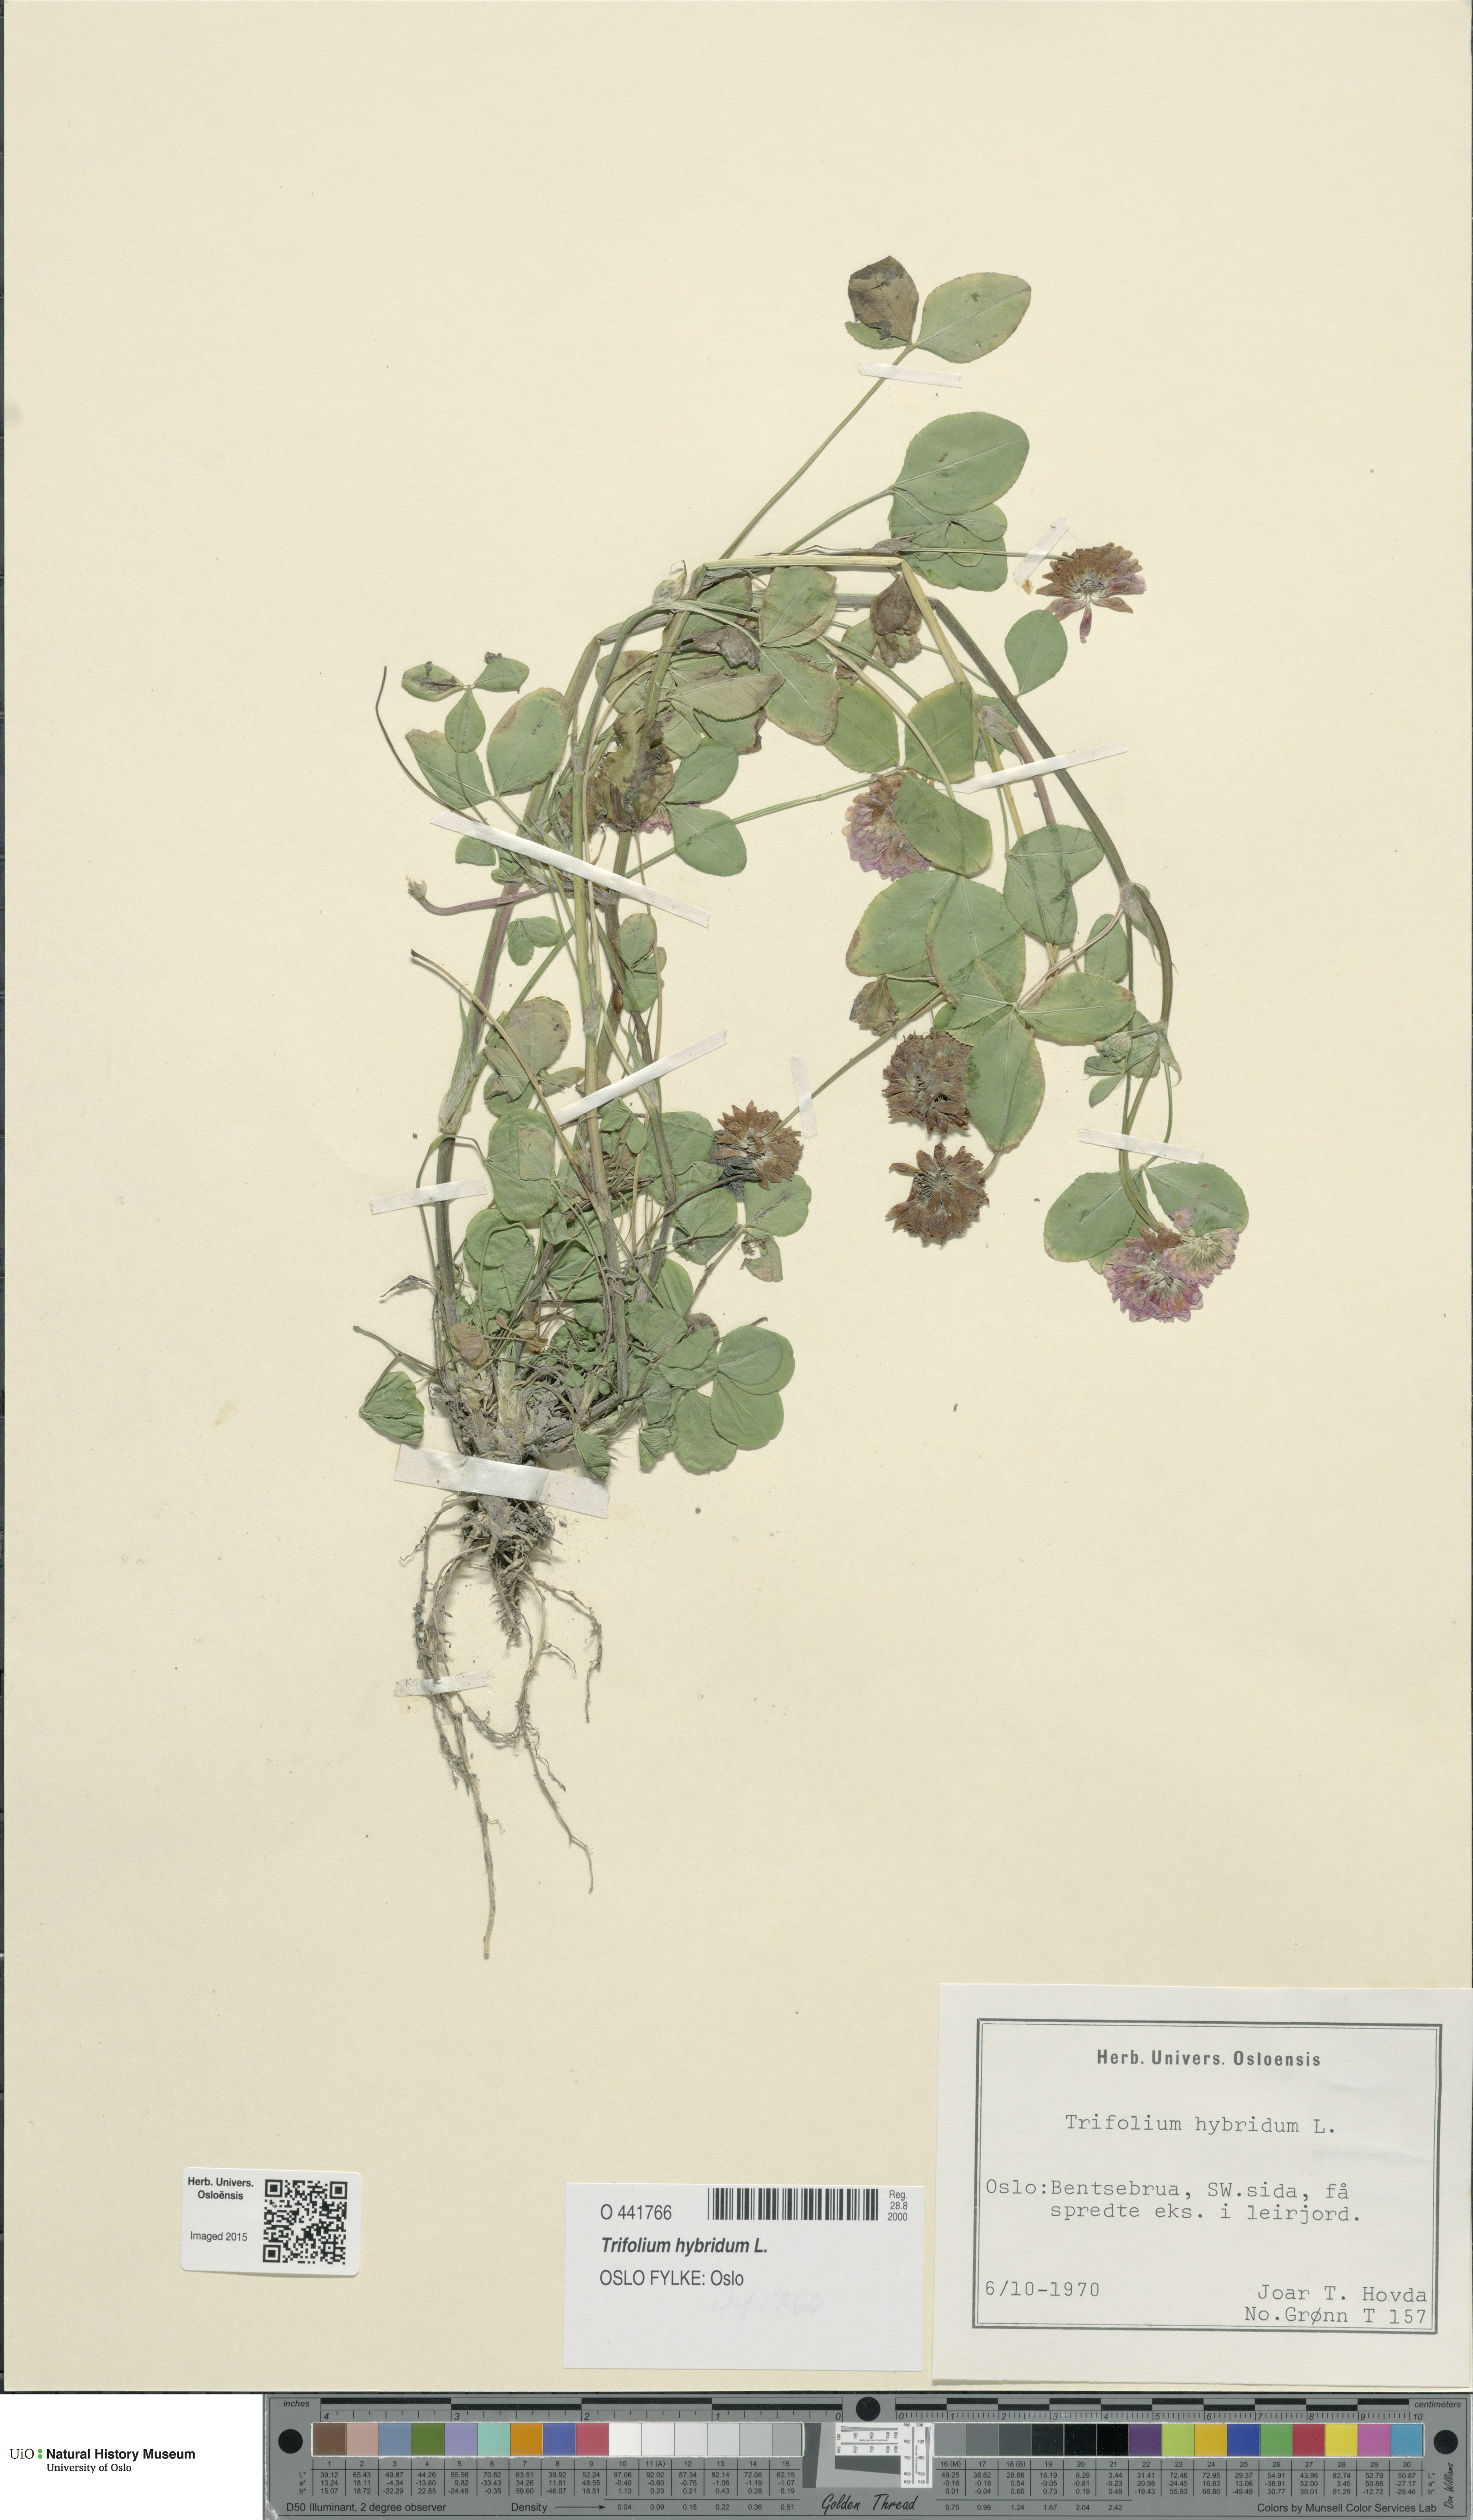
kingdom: Plantae
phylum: Tracheophyta
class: Magnoliopsida
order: Fabales
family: Fabaceae
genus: Trifolium
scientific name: Trifolium hybridum
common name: Alsike clover
